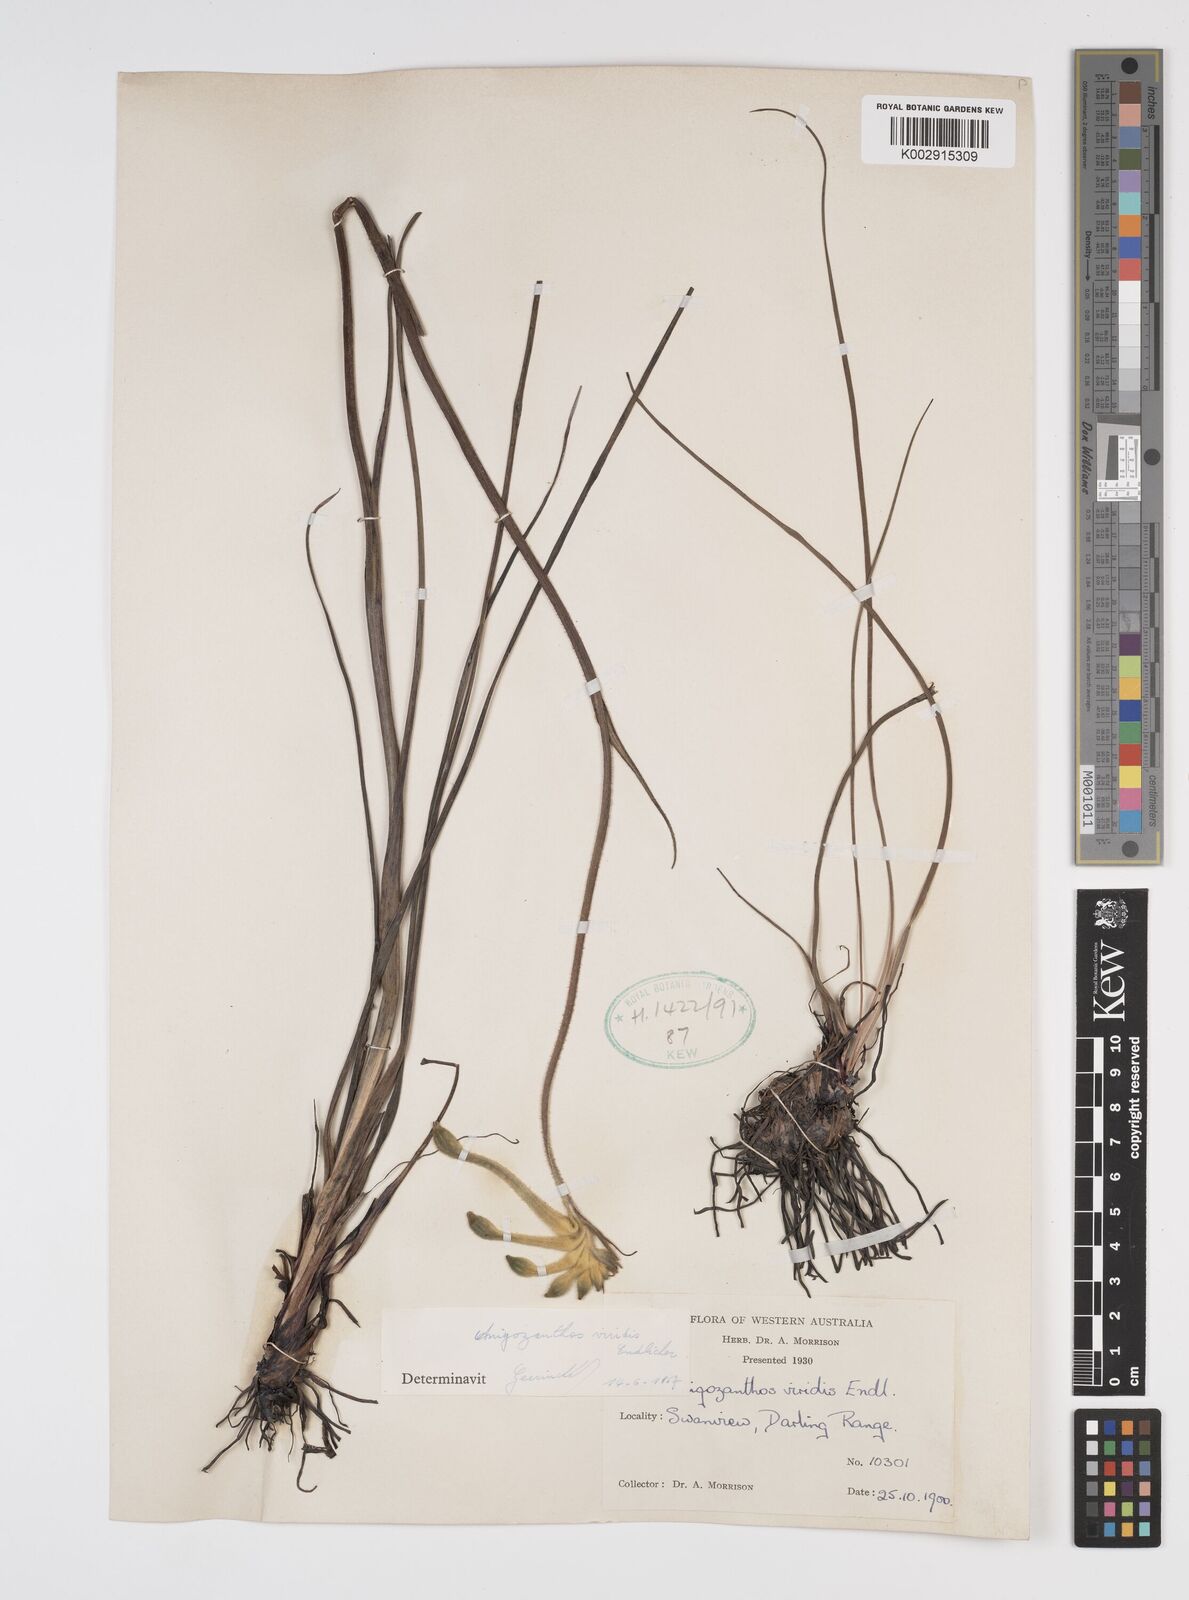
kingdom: Plantae
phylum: Tracheophyta
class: Liliopsida
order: Commelinales
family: Haemodoraceae
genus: Anigozanthos
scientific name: Anigozanthos viridis
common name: Green kangaroo-paw
